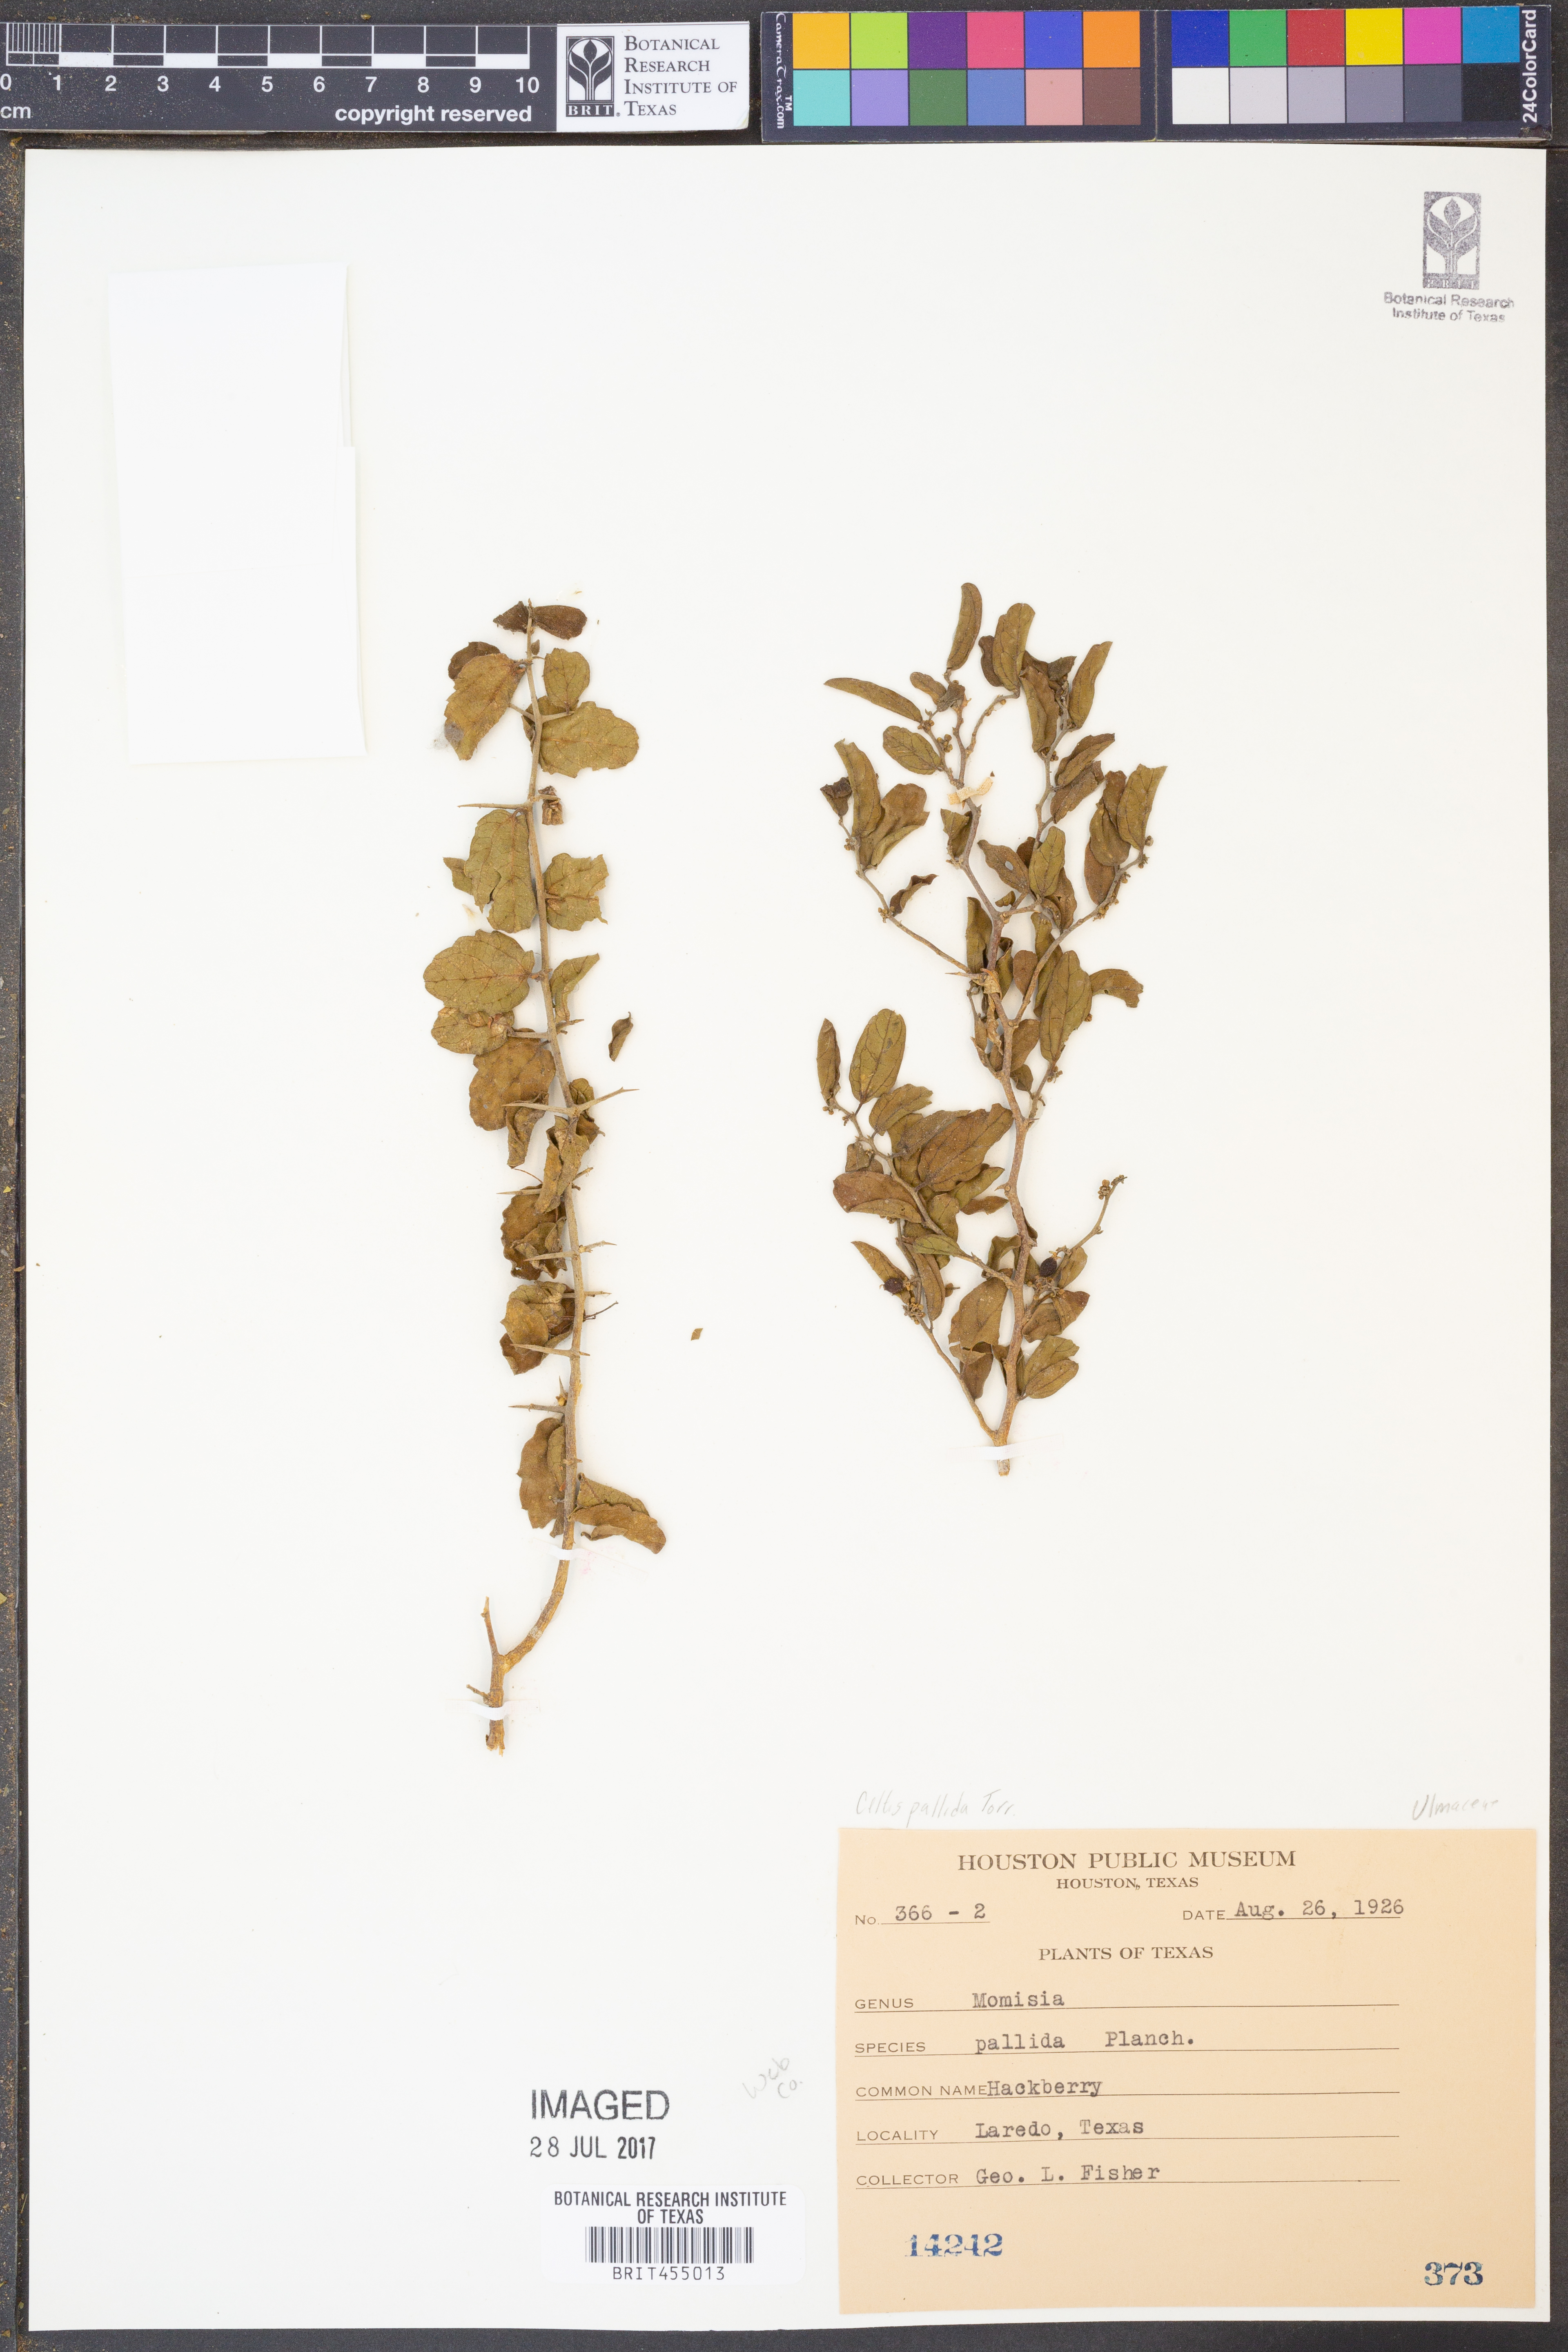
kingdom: Plantae
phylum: Tracheophyta
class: Magnoliopsida
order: Rosales
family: Cannabaceae
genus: Celtis
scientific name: Celtis pallida
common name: Desert hackberry
